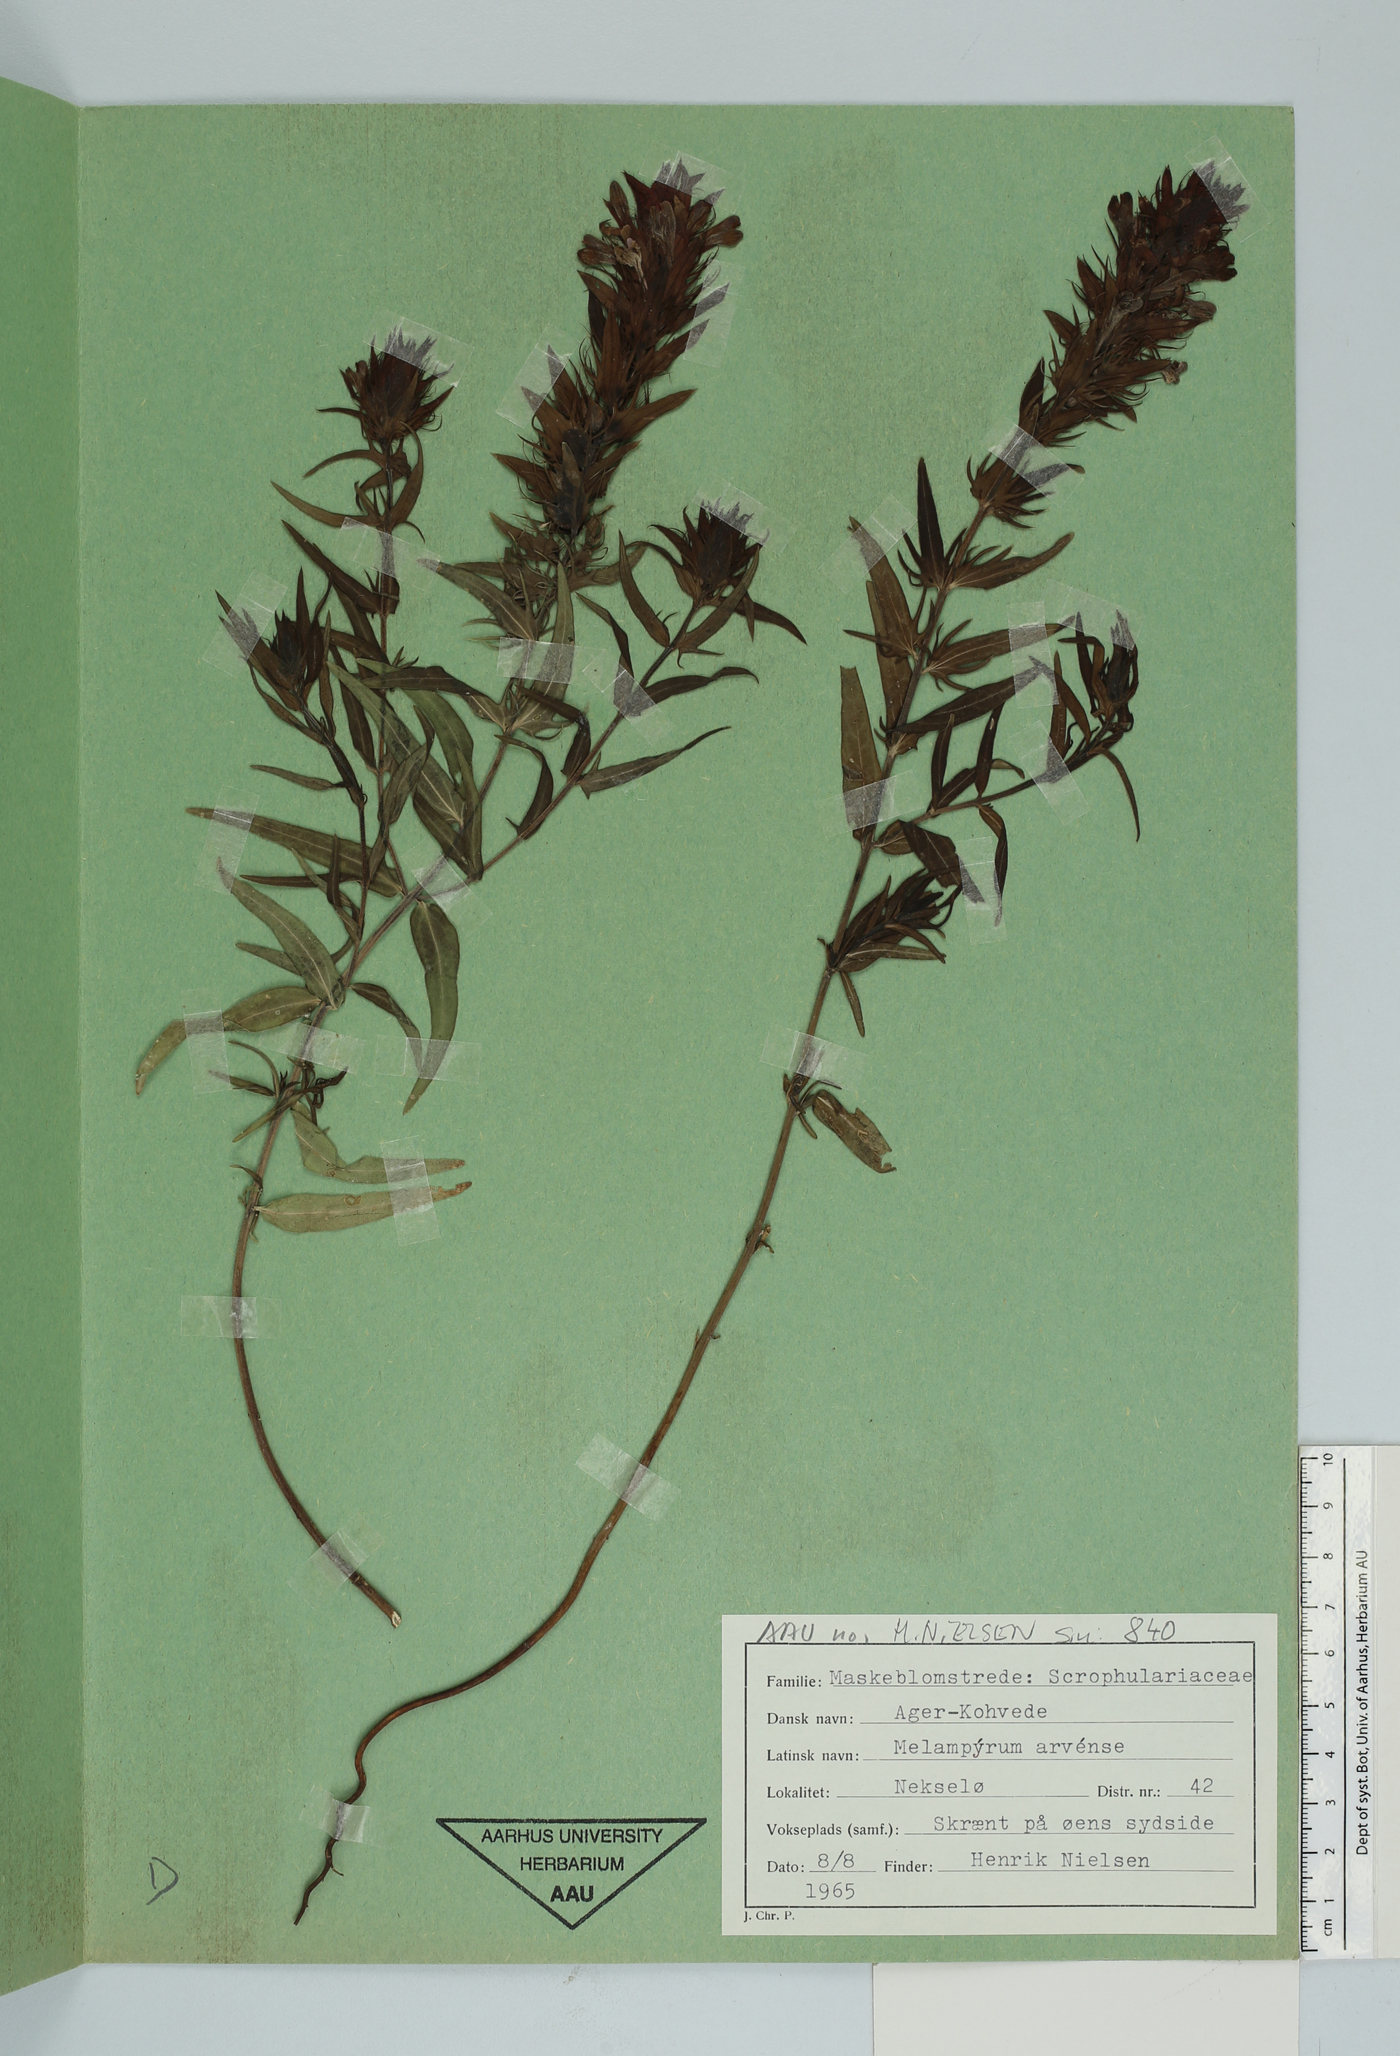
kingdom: Plantae
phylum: Tracheophyta
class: Magnoliopsida
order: Lamiales
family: Orobanchaceae
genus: Melampyrum
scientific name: Melampyrum arvense
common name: Field cow-wheat
